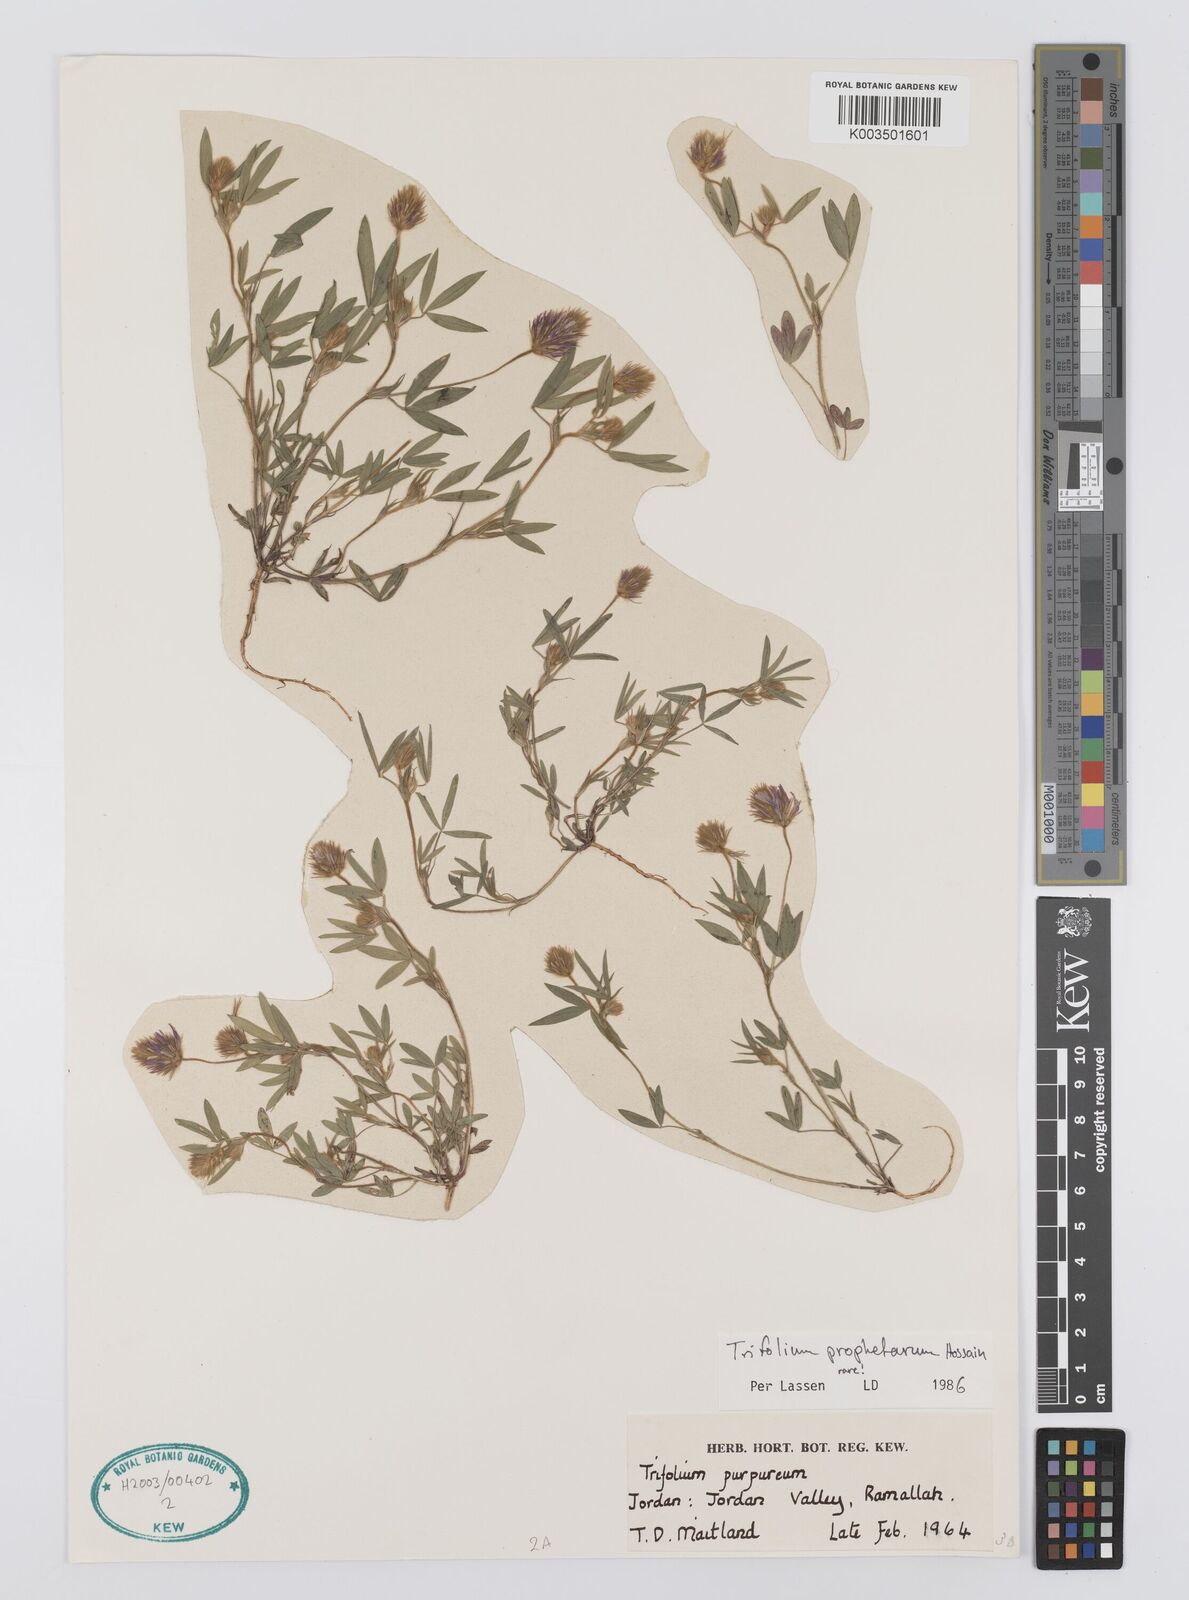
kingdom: Plantae
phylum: Tracheophyta
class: Magnoliopsida
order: Fabales
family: Fabaceae
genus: Trifolium
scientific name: Trifolium prophetarum
